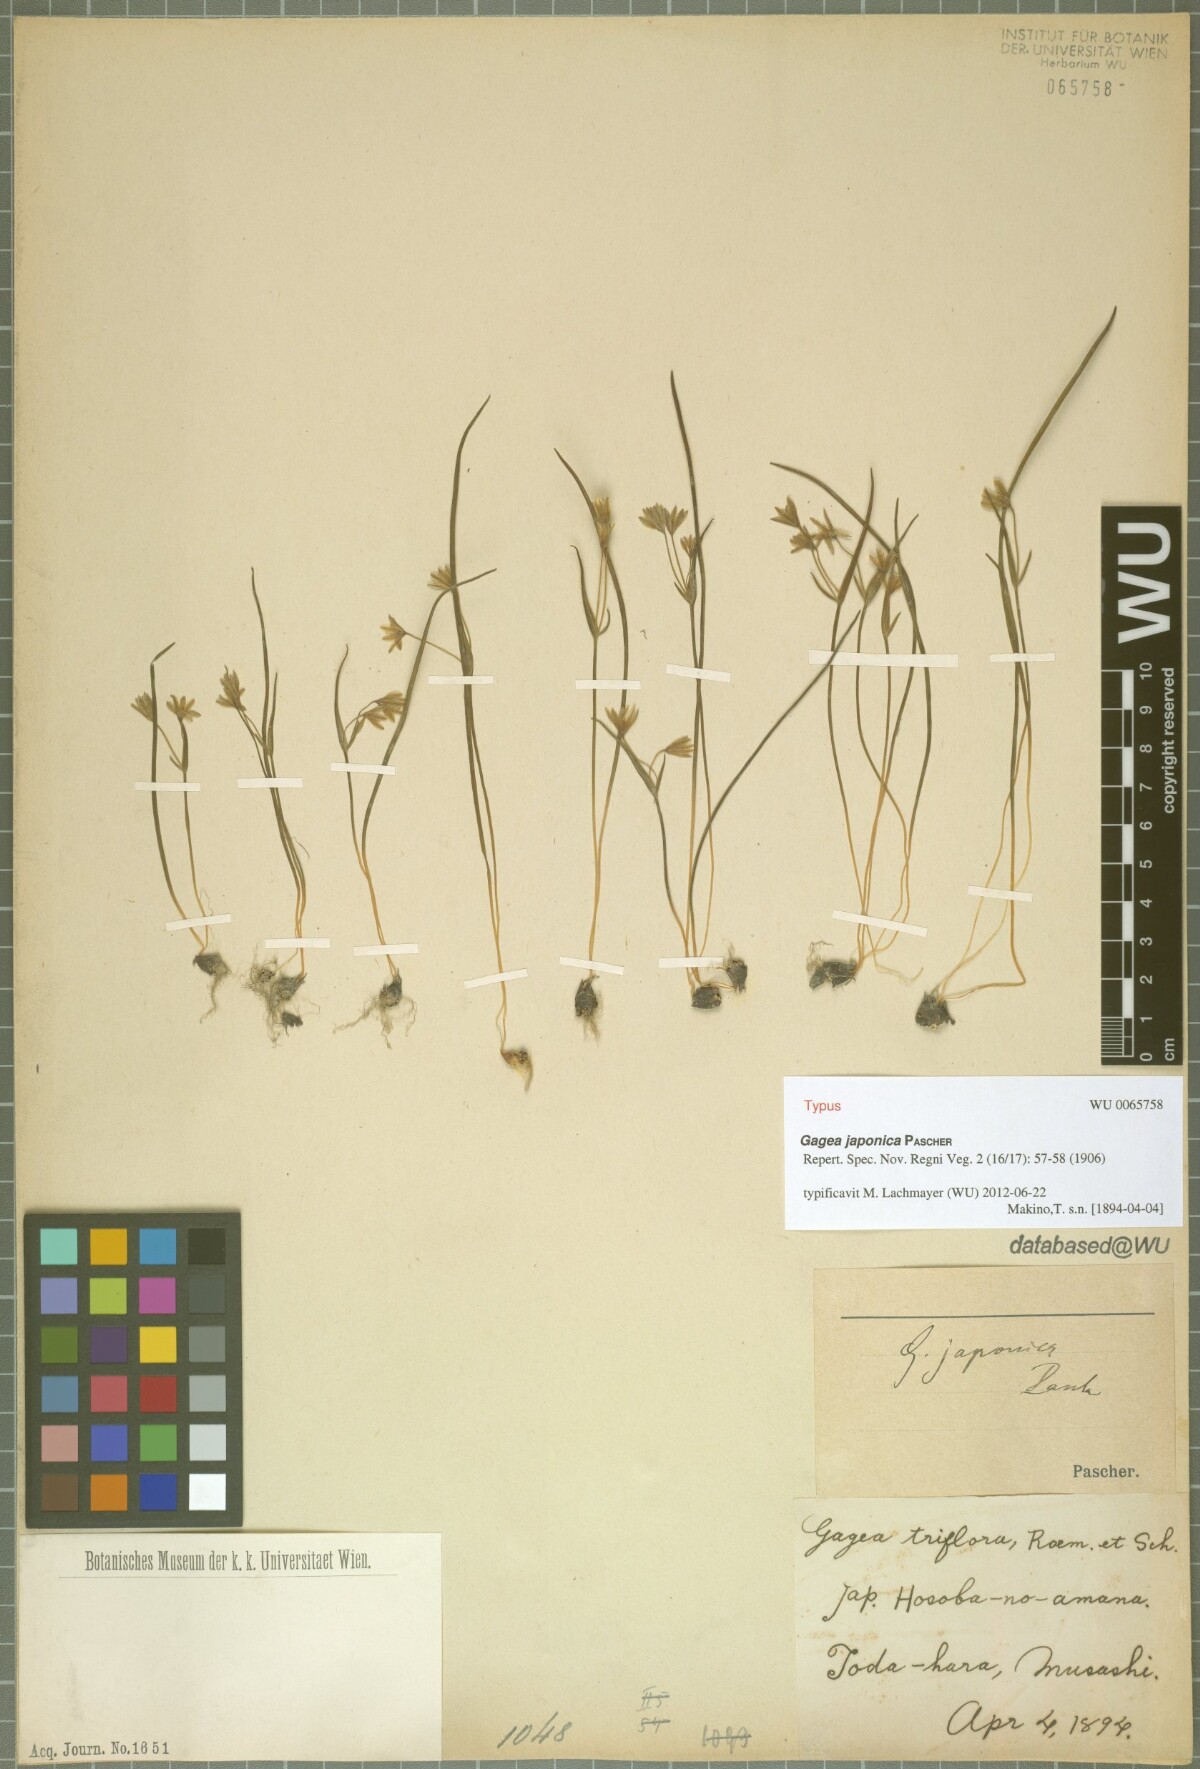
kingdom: Plantae
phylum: Tracheophyta
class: Liliopsida
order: Liliales
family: Liliaceae
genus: Gagea
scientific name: Gagea japonica
